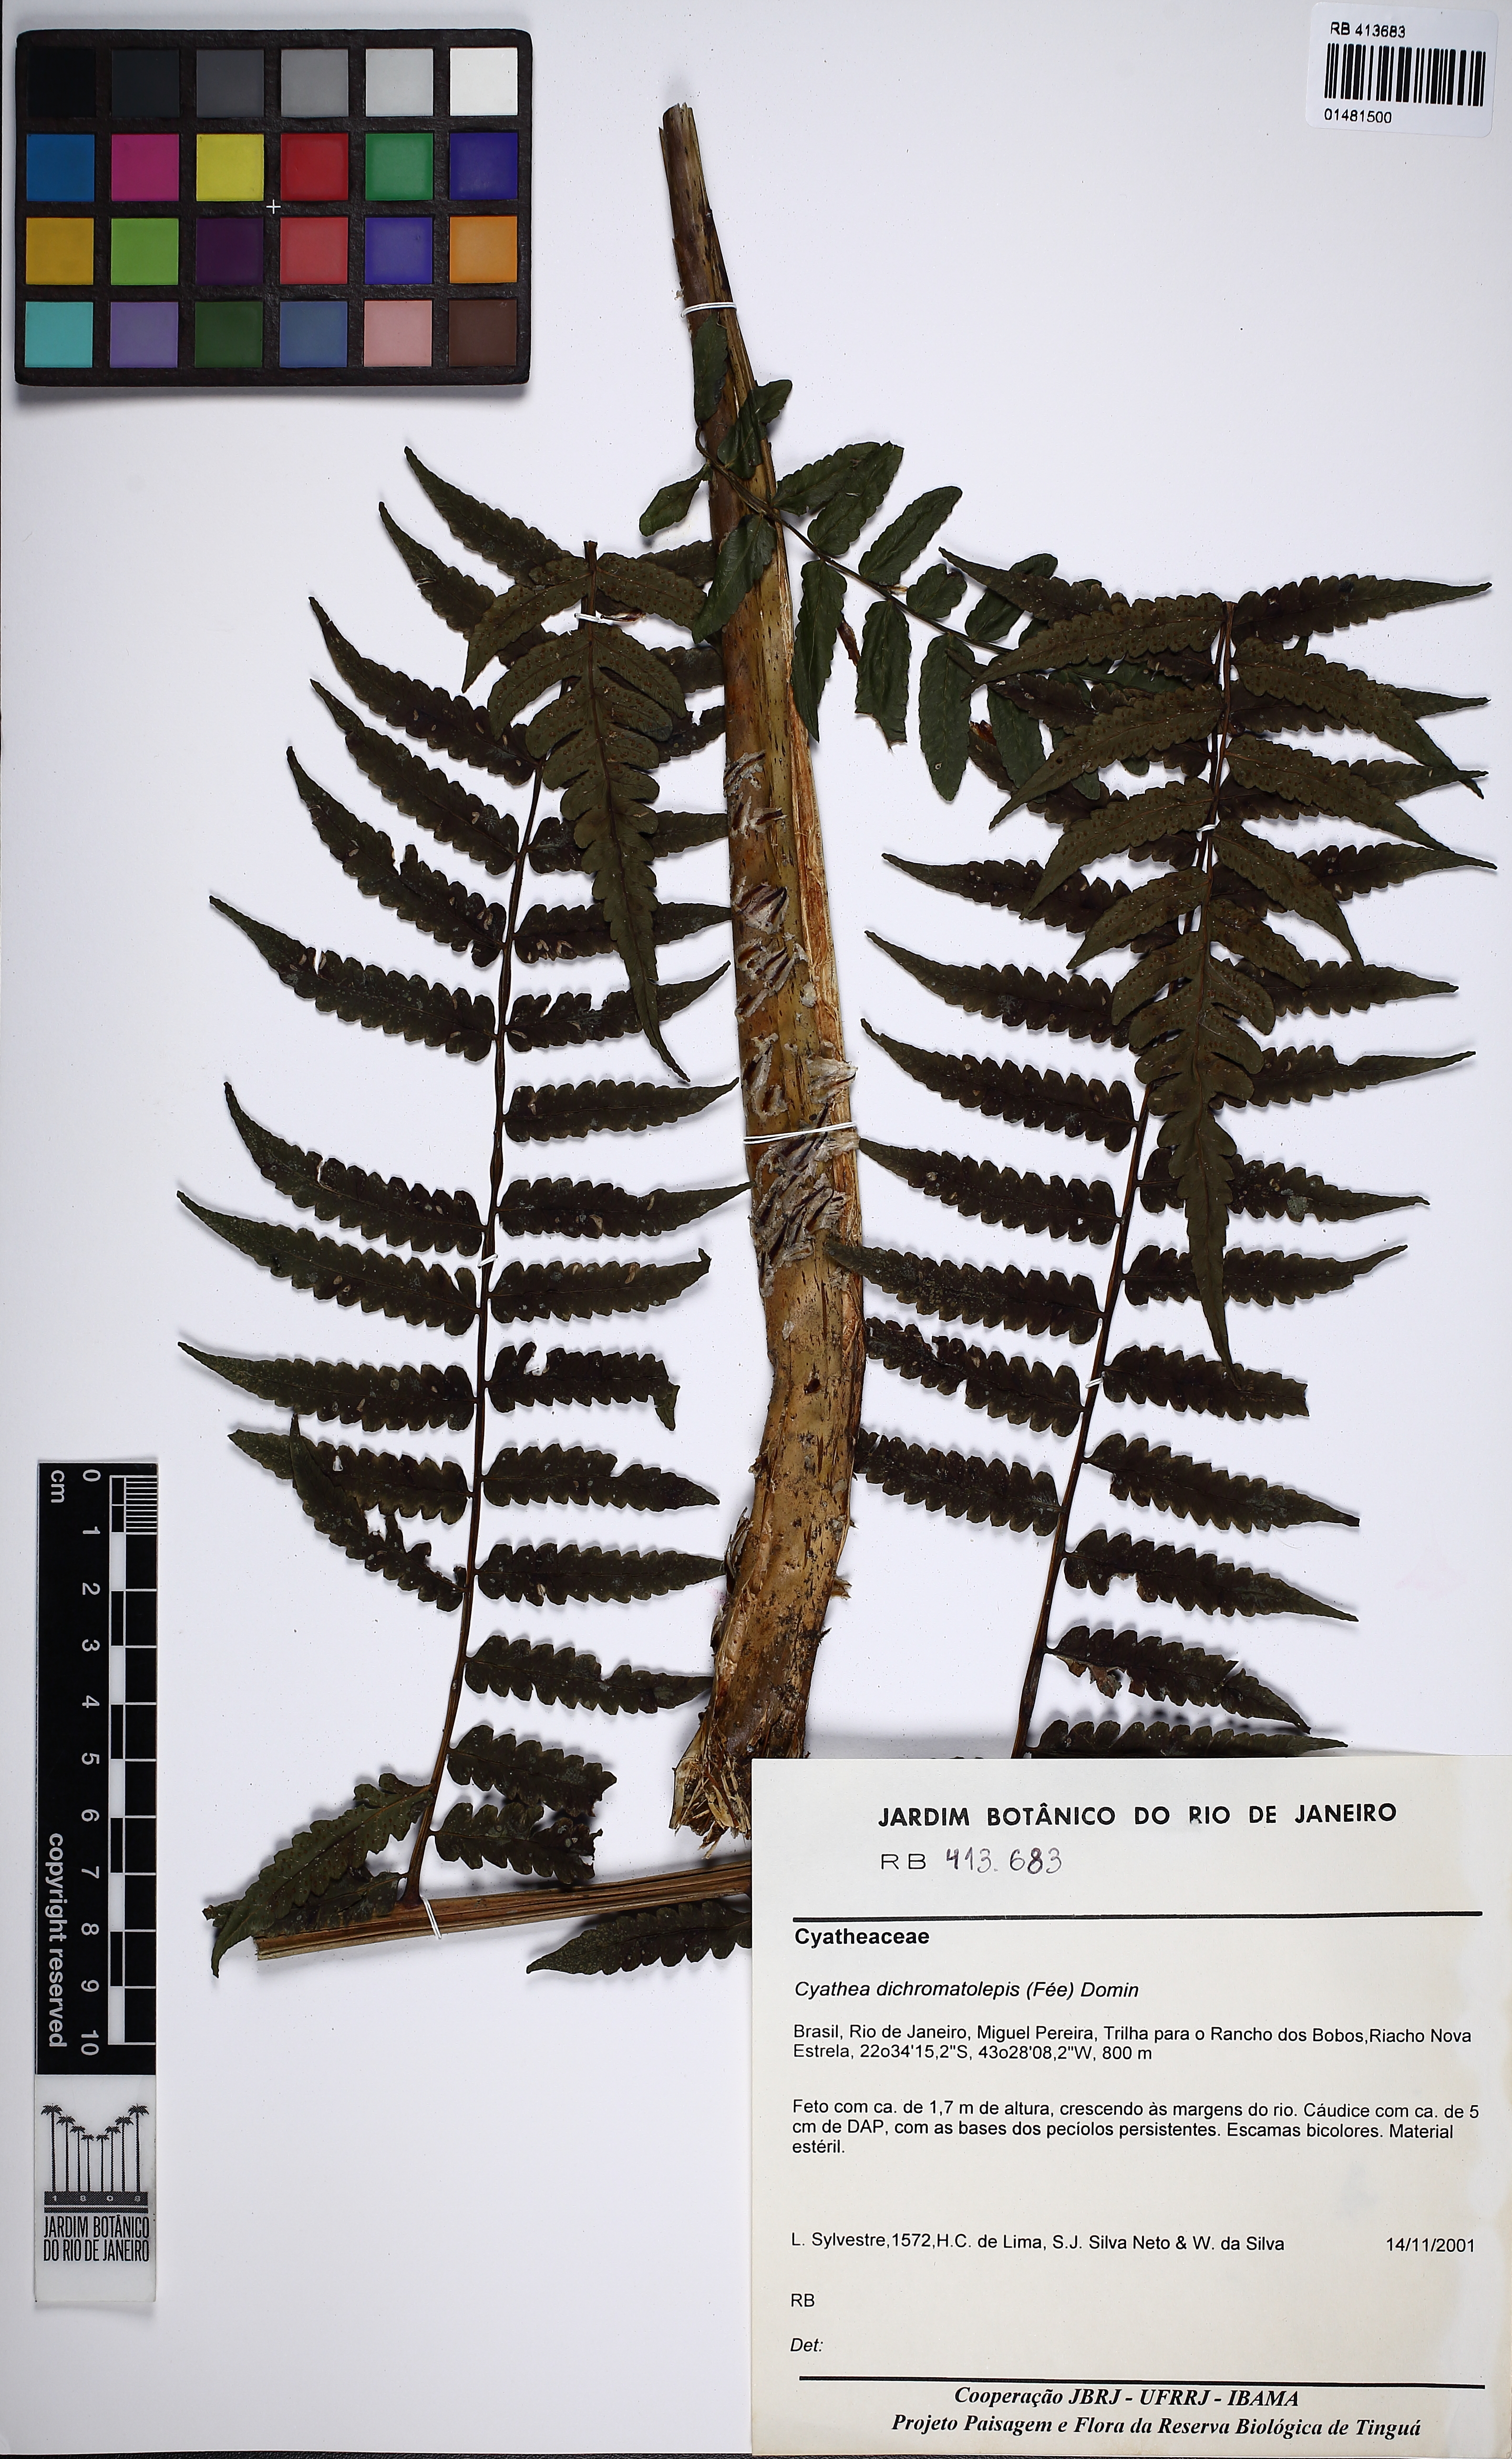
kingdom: Plantae
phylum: Tracheophyta
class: Polypodiopsida
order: Cyatheales
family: Cyatheaceae
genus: Cyathea
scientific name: Cyathea dichromatolepis
